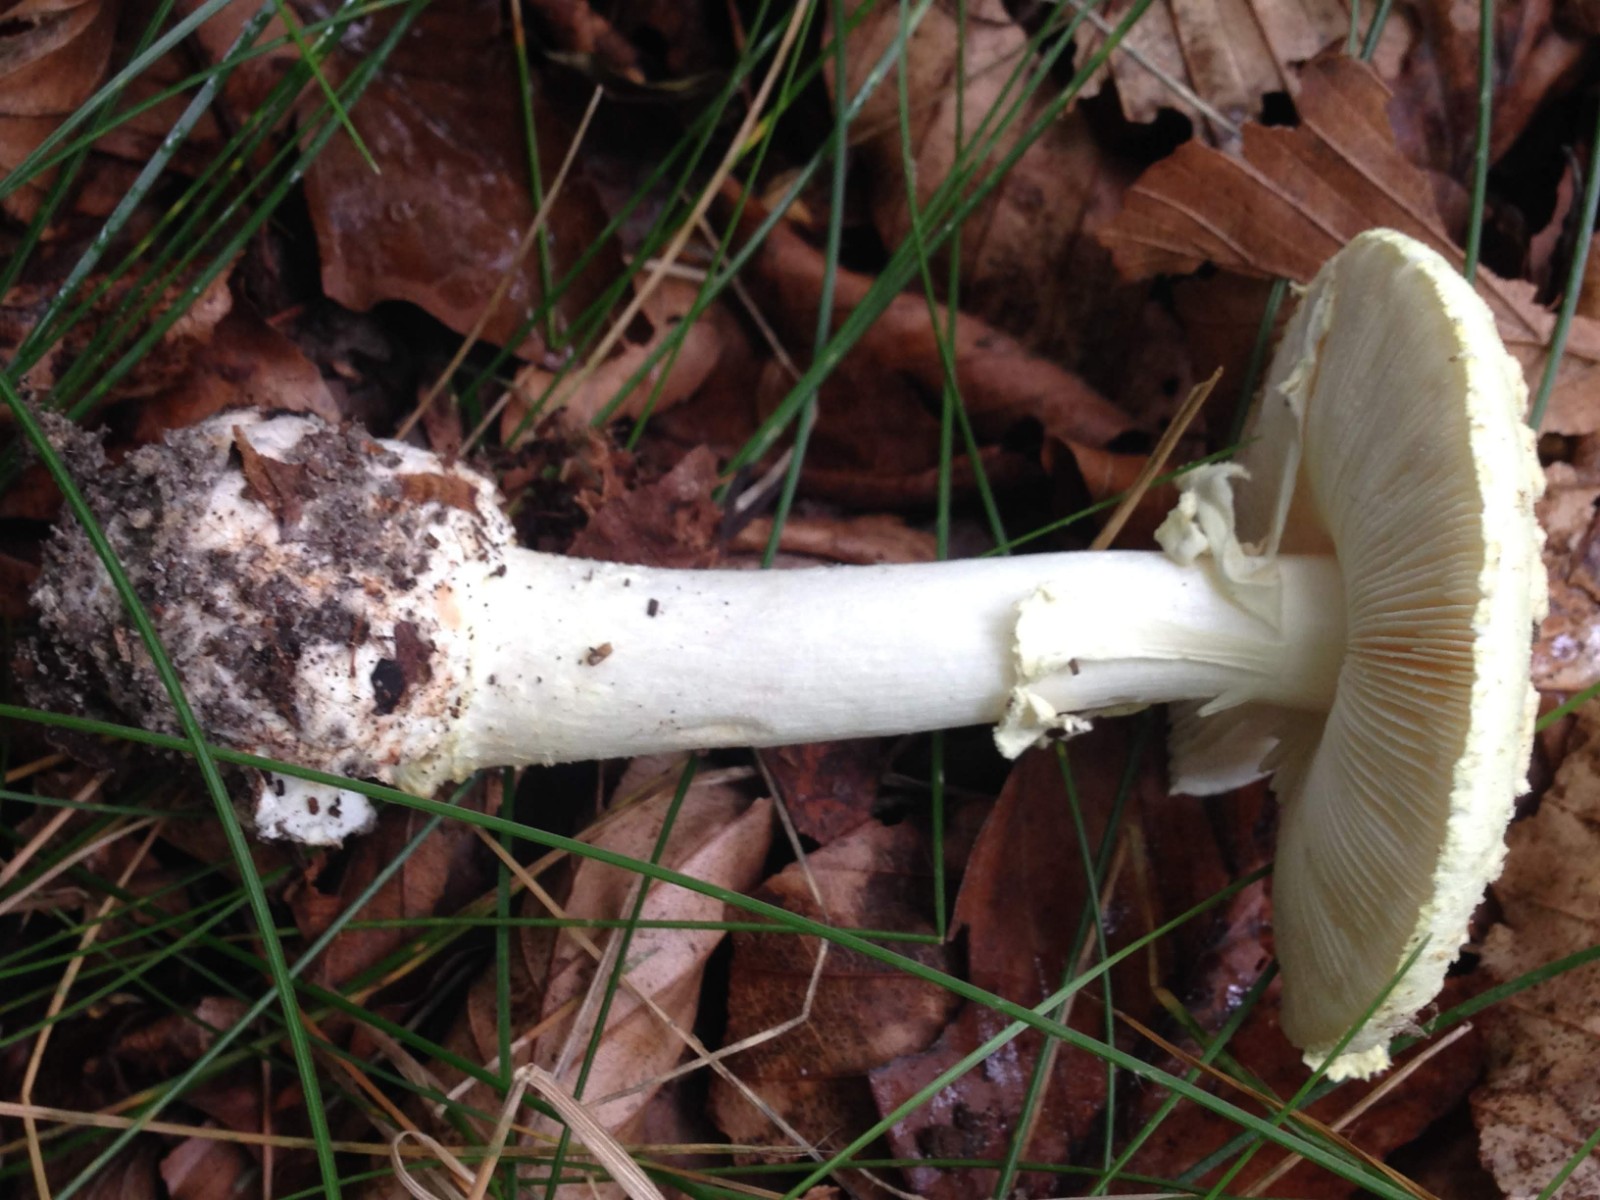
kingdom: Fungi
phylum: Basidiomycota
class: Agaricomycetes
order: Agaricales
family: Amanitaceae
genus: Amanita
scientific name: Amanita citrina
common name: False death-cap
